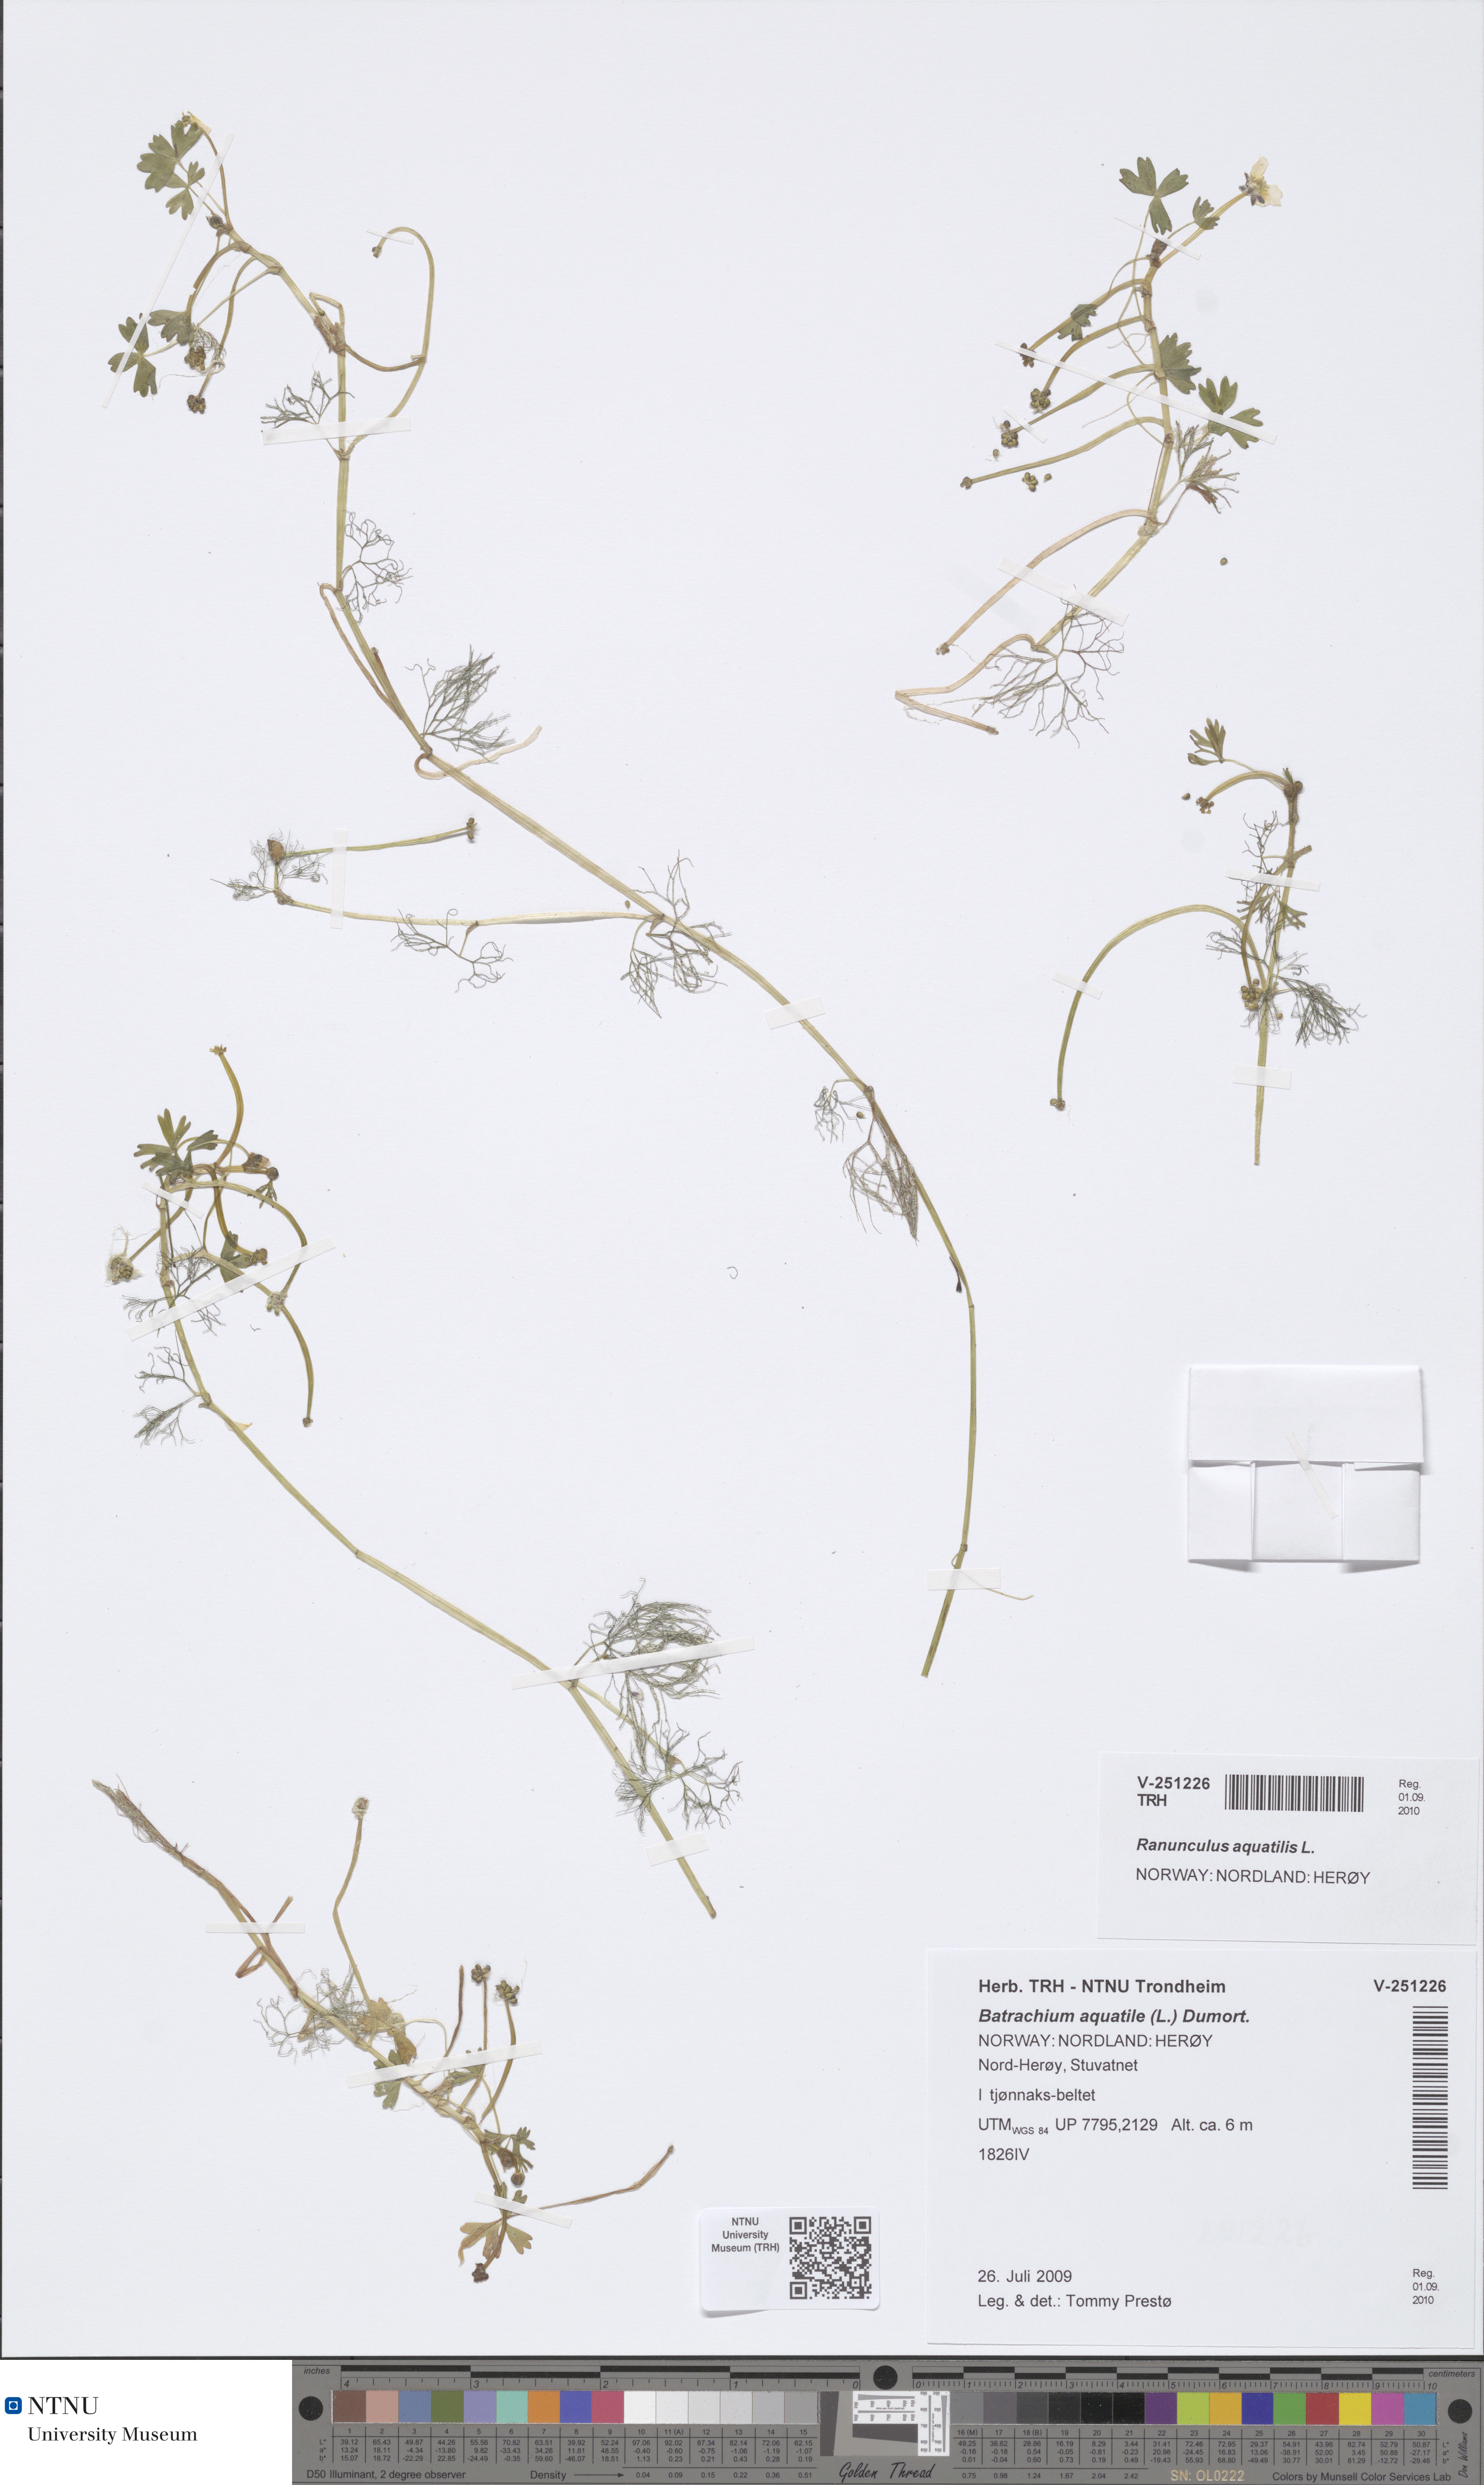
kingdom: Plantae
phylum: Tracheophyta
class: Magnoliopsida
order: Ranunculales
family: Ranunculaceae
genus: Ranunculus
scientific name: Ranunculus aquatilis
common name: Common water-crowfoot
